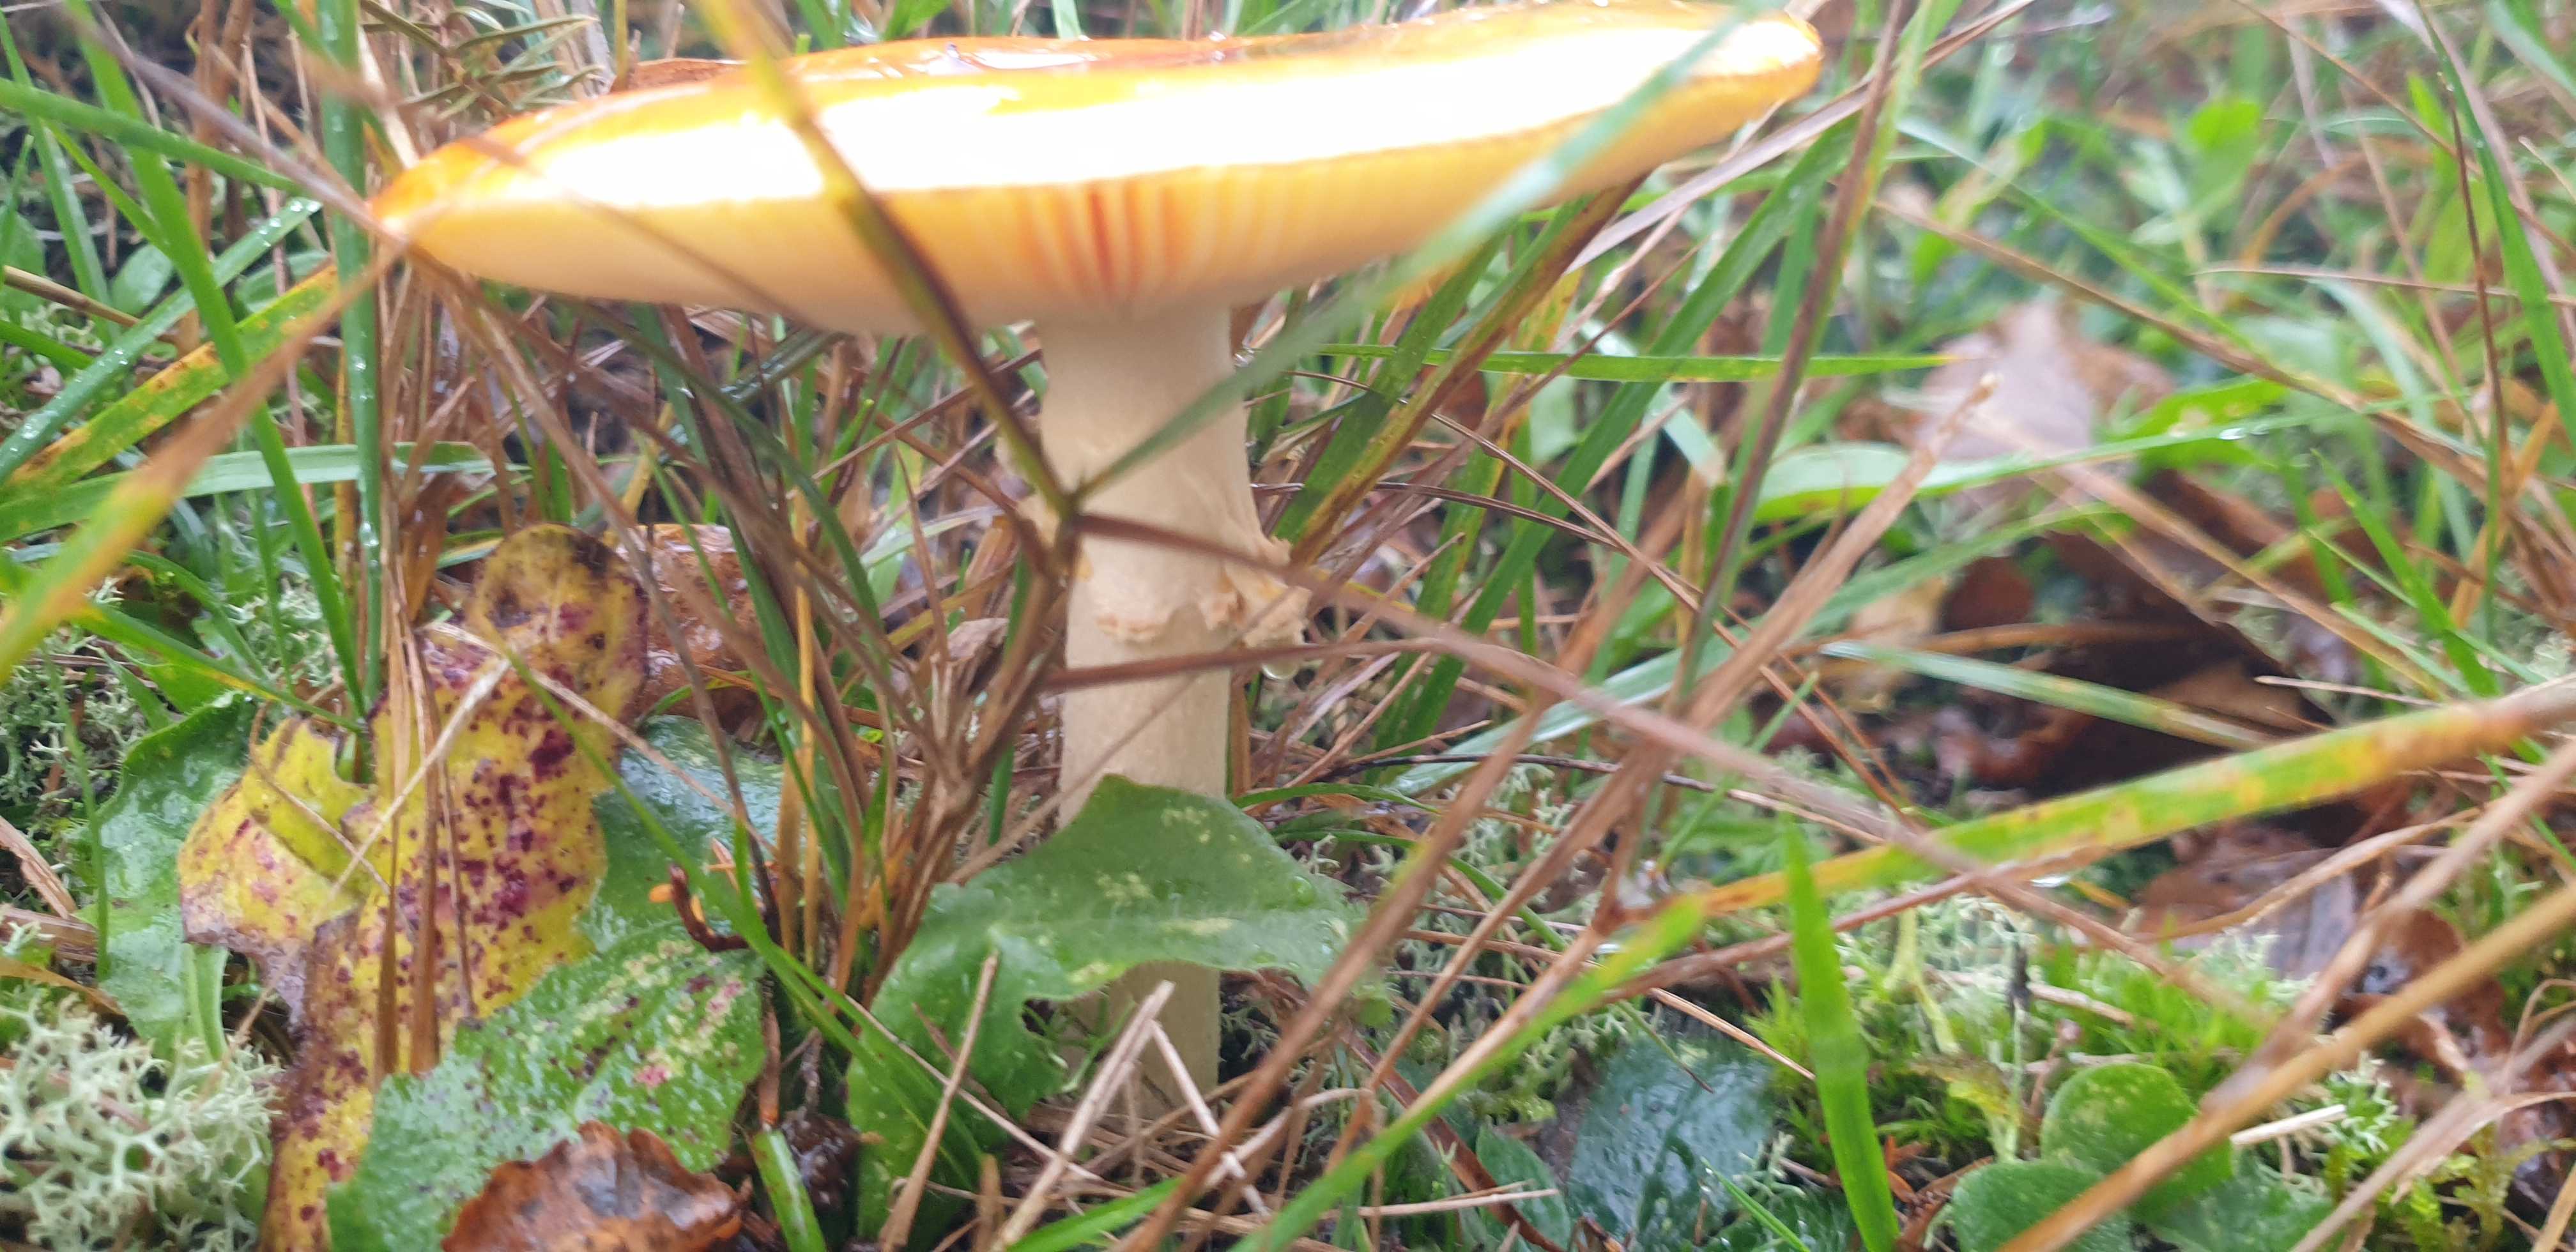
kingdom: Fungi
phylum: Basidiomycota
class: Agaricomycetes
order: Agaricales
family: Amanitaceae
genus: Amanita
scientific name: Amanita muscaria
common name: rød fluesvamp
